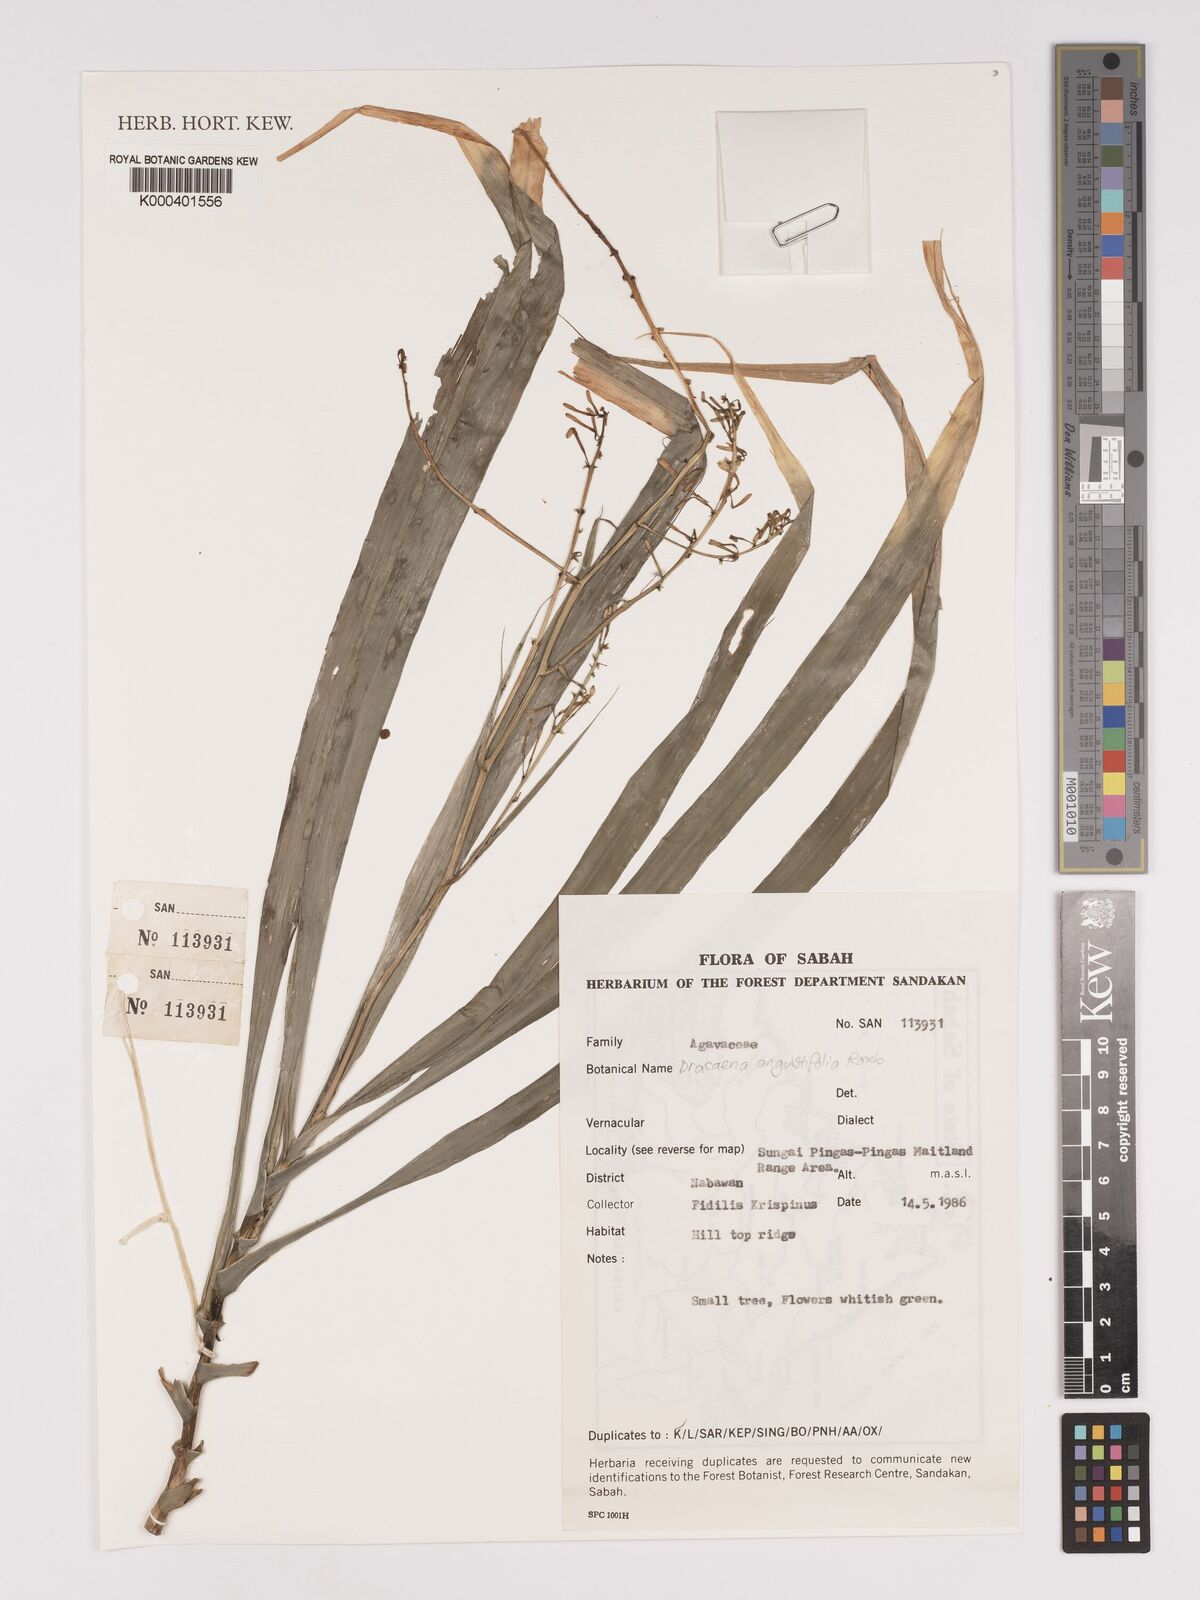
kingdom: Plantae
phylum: Tracheophyta
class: Liliopsida
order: Asparagales
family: Asparagaceae
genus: Dracaena
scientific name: Dracaena angustifolia
